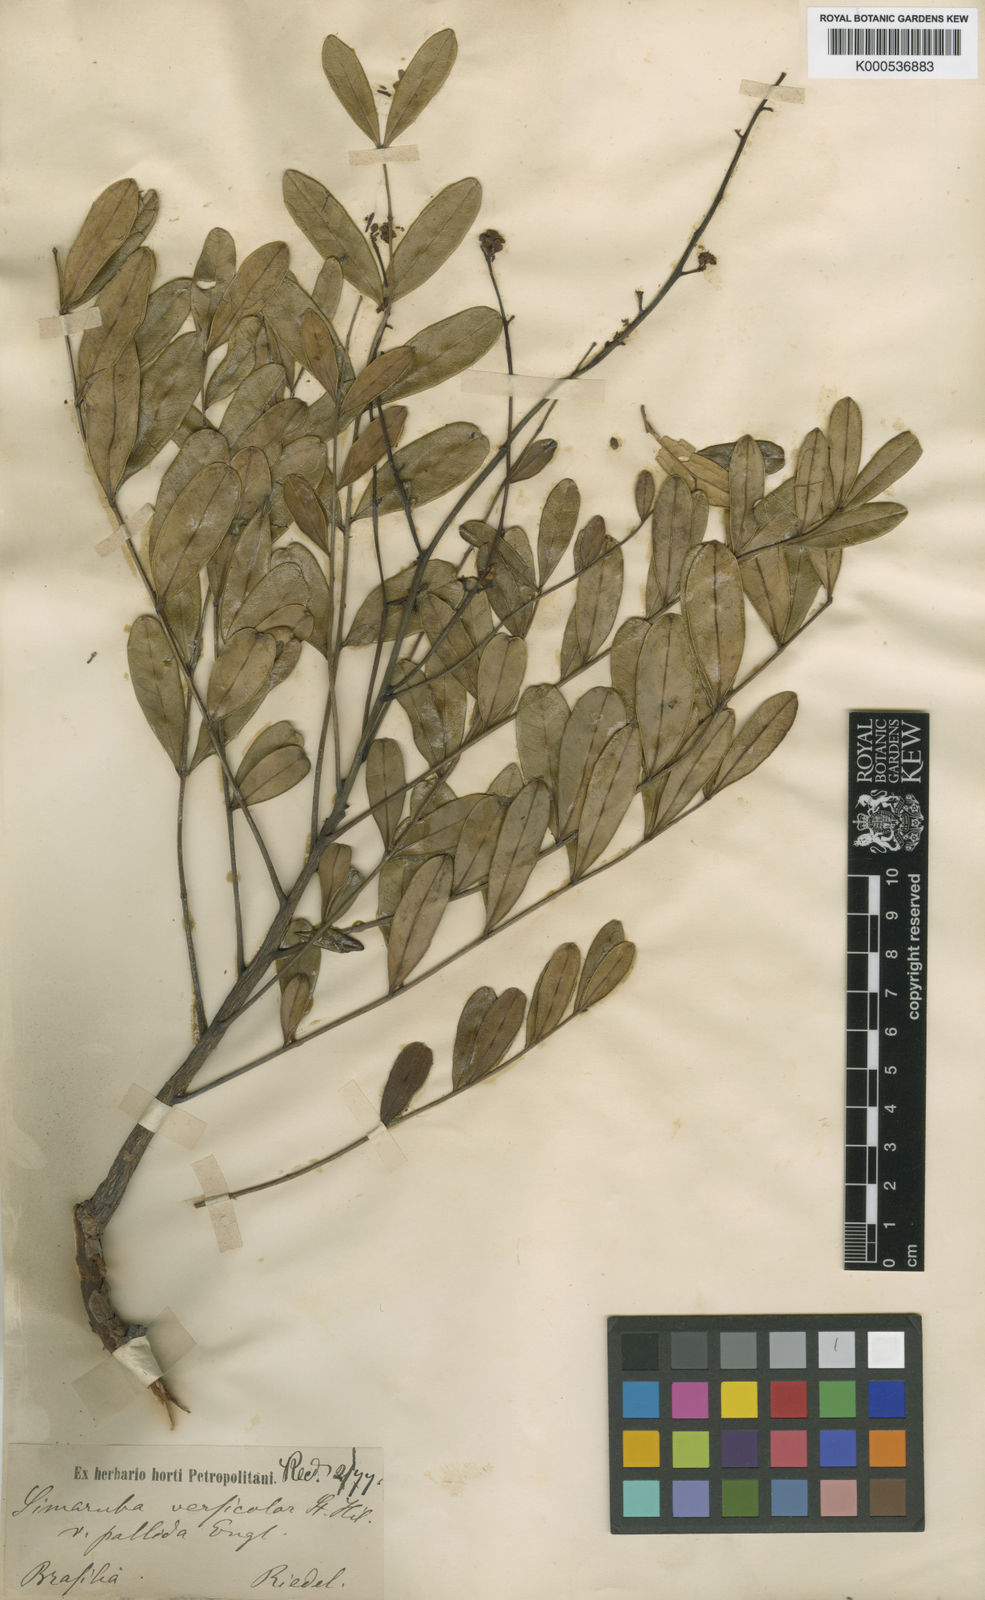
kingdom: Plantae
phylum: Tracheophyta
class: Magnoliopsida
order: Sapindales
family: Simaroubaceae
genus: Simarouba
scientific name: Simarouba versicolor
